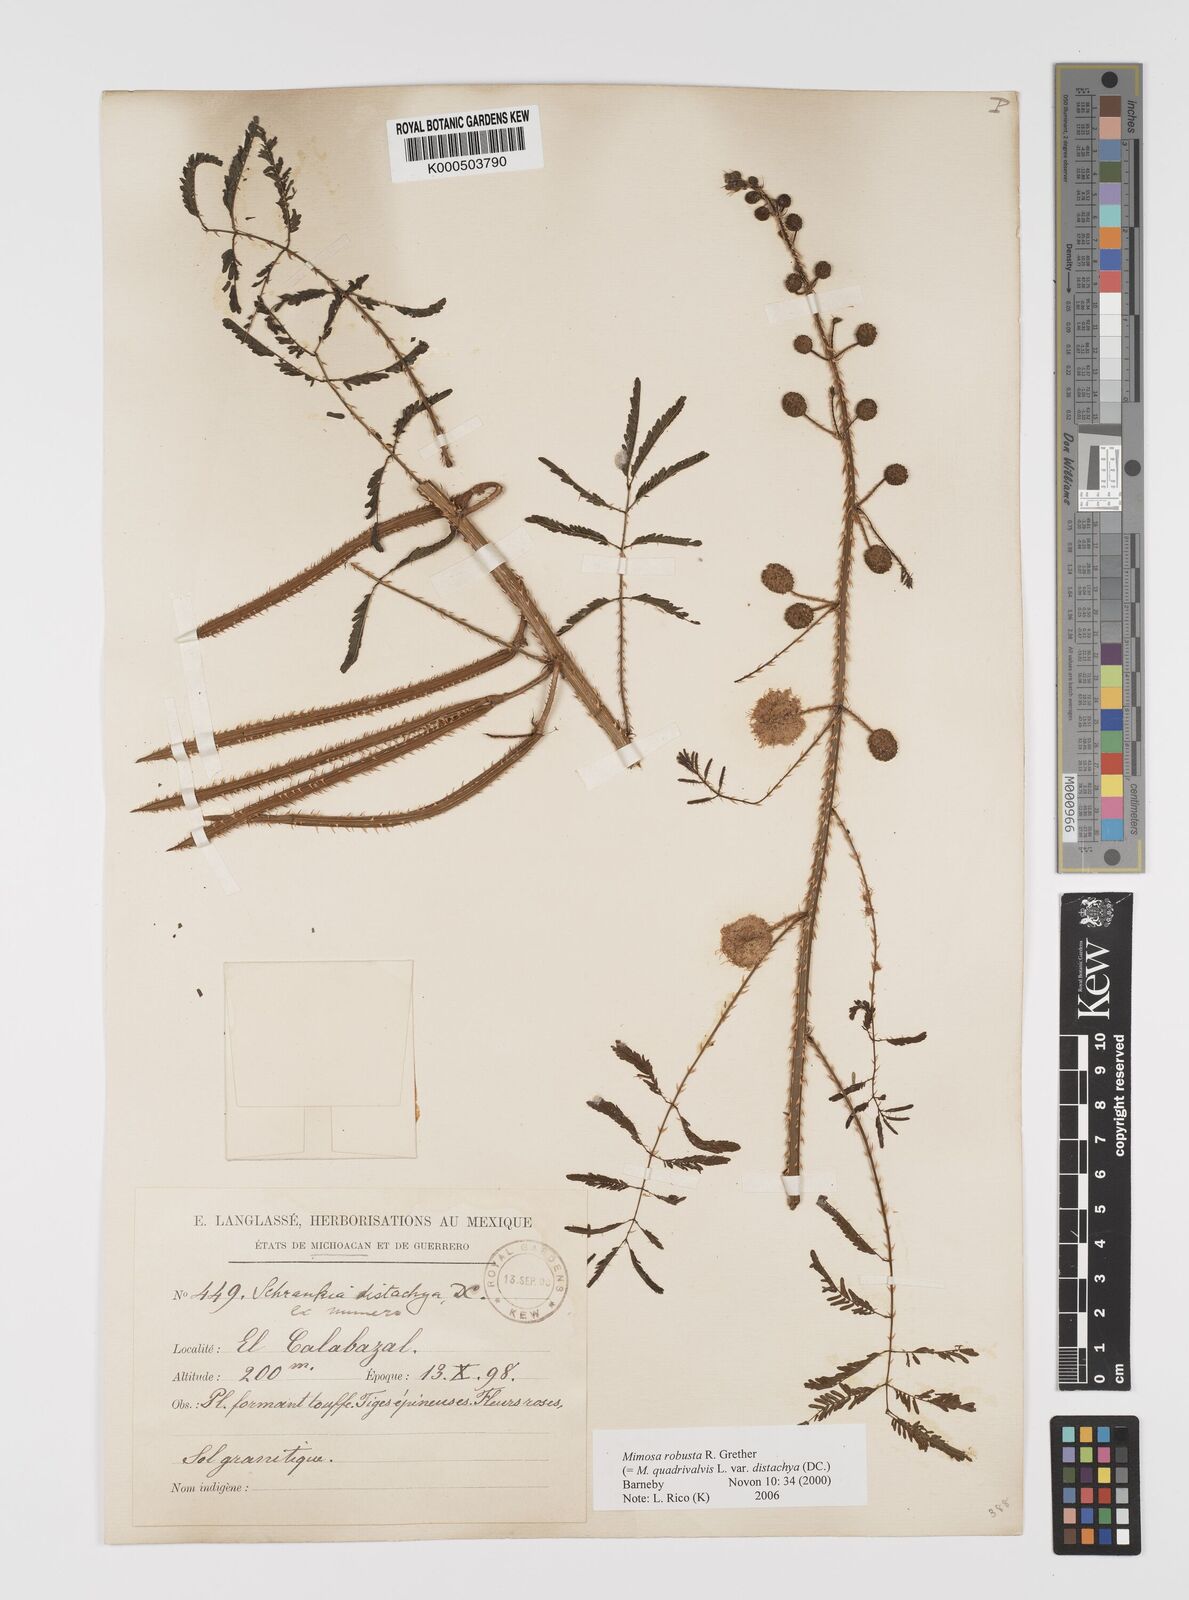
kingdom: Plantae
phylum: Tracheophyta
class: Magnoliopsida
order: Fabales
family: Fabaceae
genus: Mimosa
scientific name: Mimosa robusta
